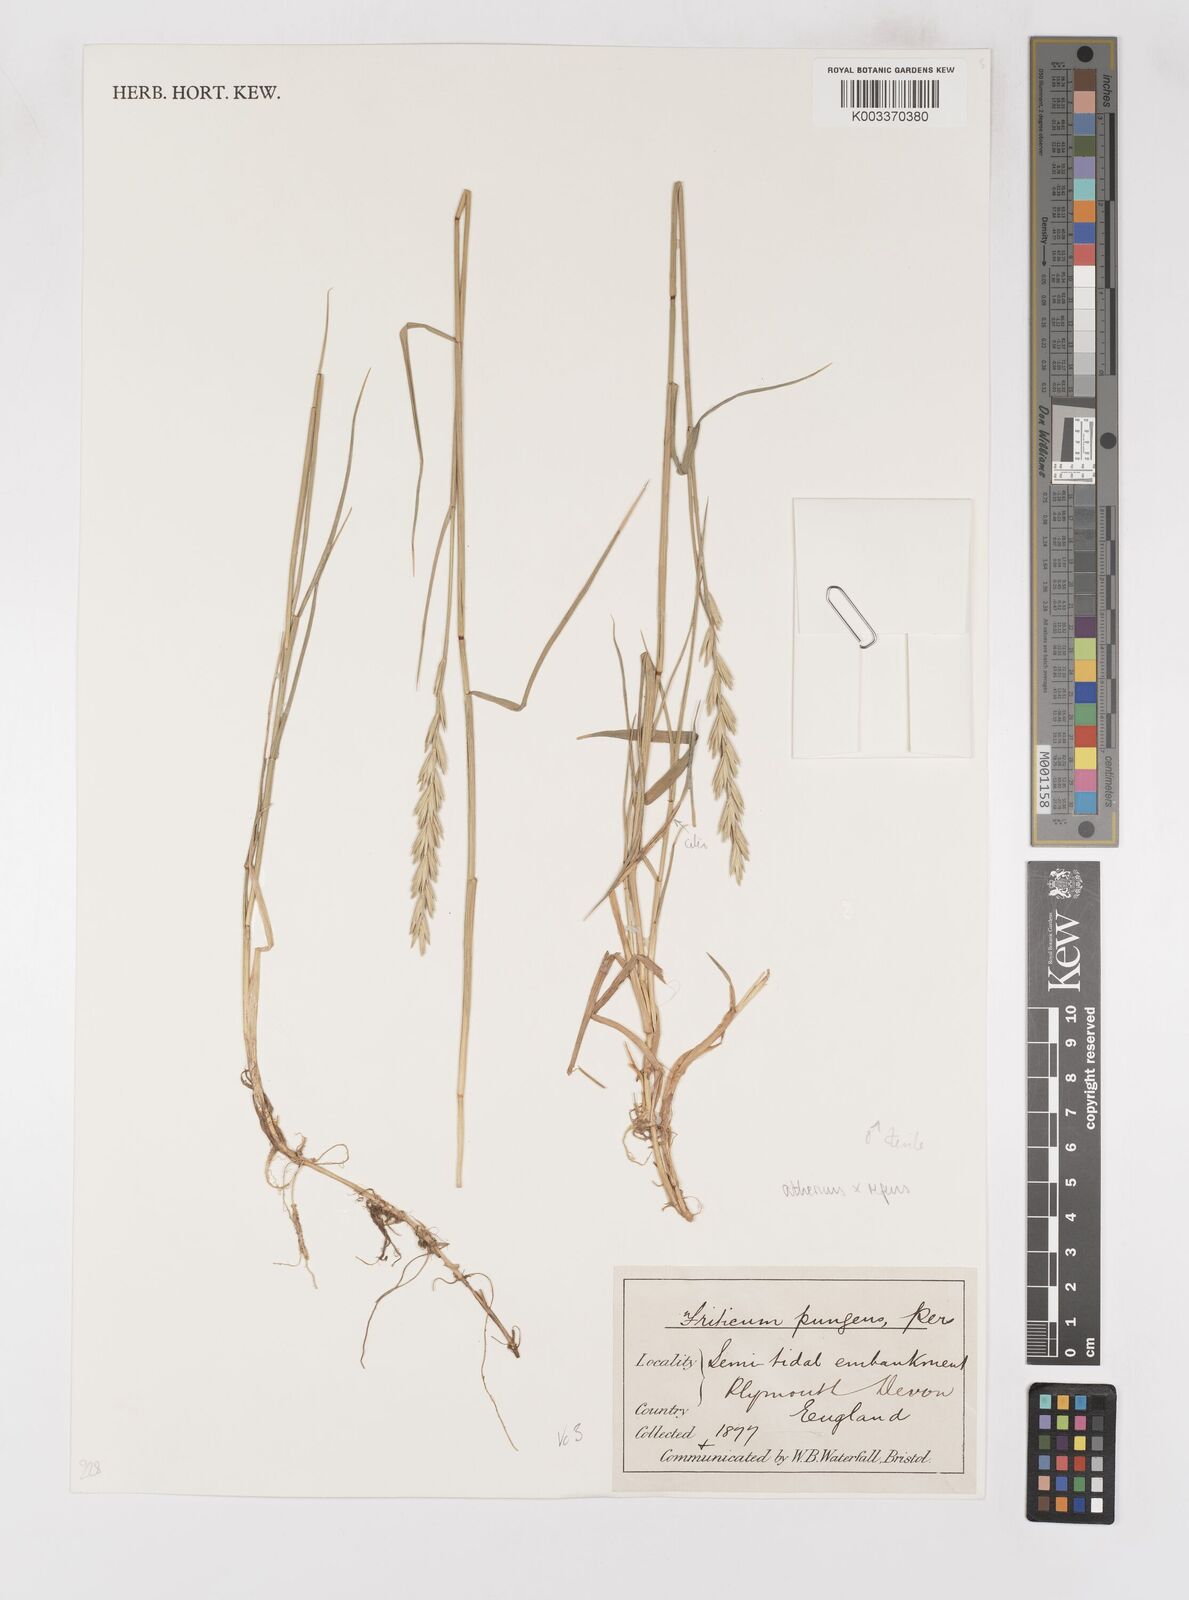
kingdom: Plantae
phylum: Tracheophyta
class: Liliopsida
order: Poales
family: Poaceae
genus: Elymus
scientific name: Elymus oliveri
